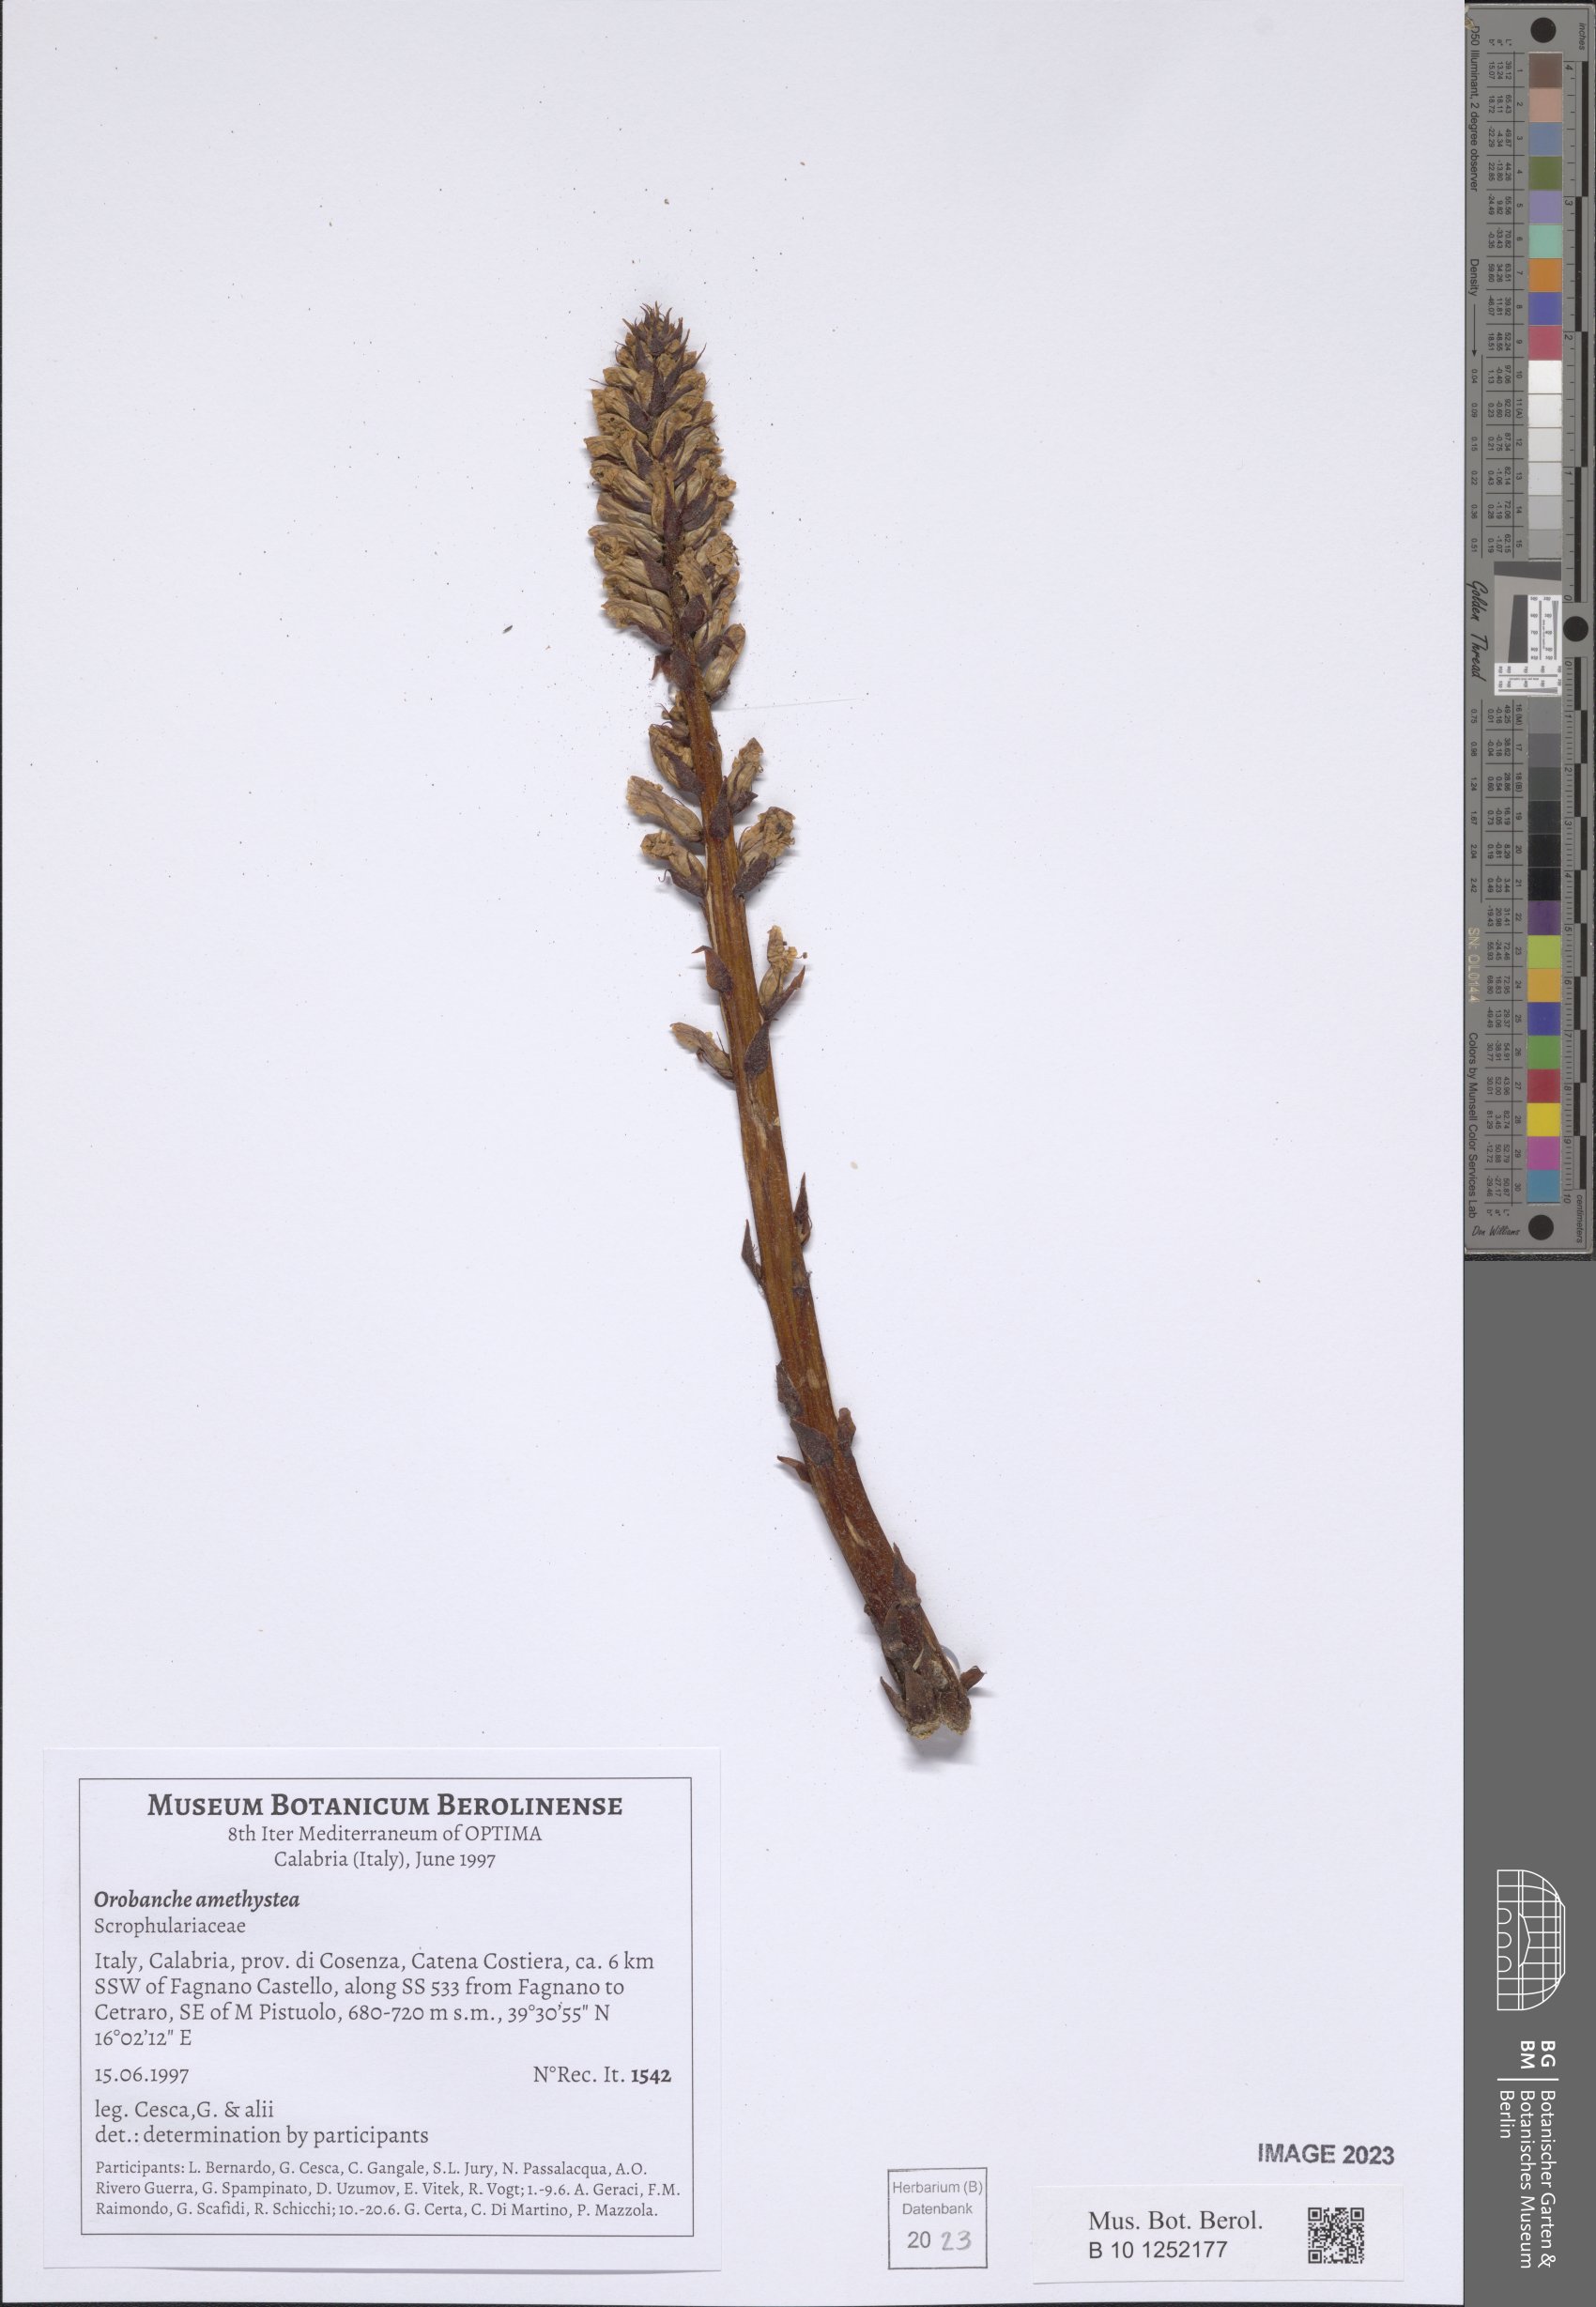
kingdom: Plantae
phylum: Tracheophyta
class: Magnoliopsida
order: Lamiales
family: Orobanchaceae
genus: Orobanche
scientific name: Orobanche amethystea
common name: Amethyst broomrape
